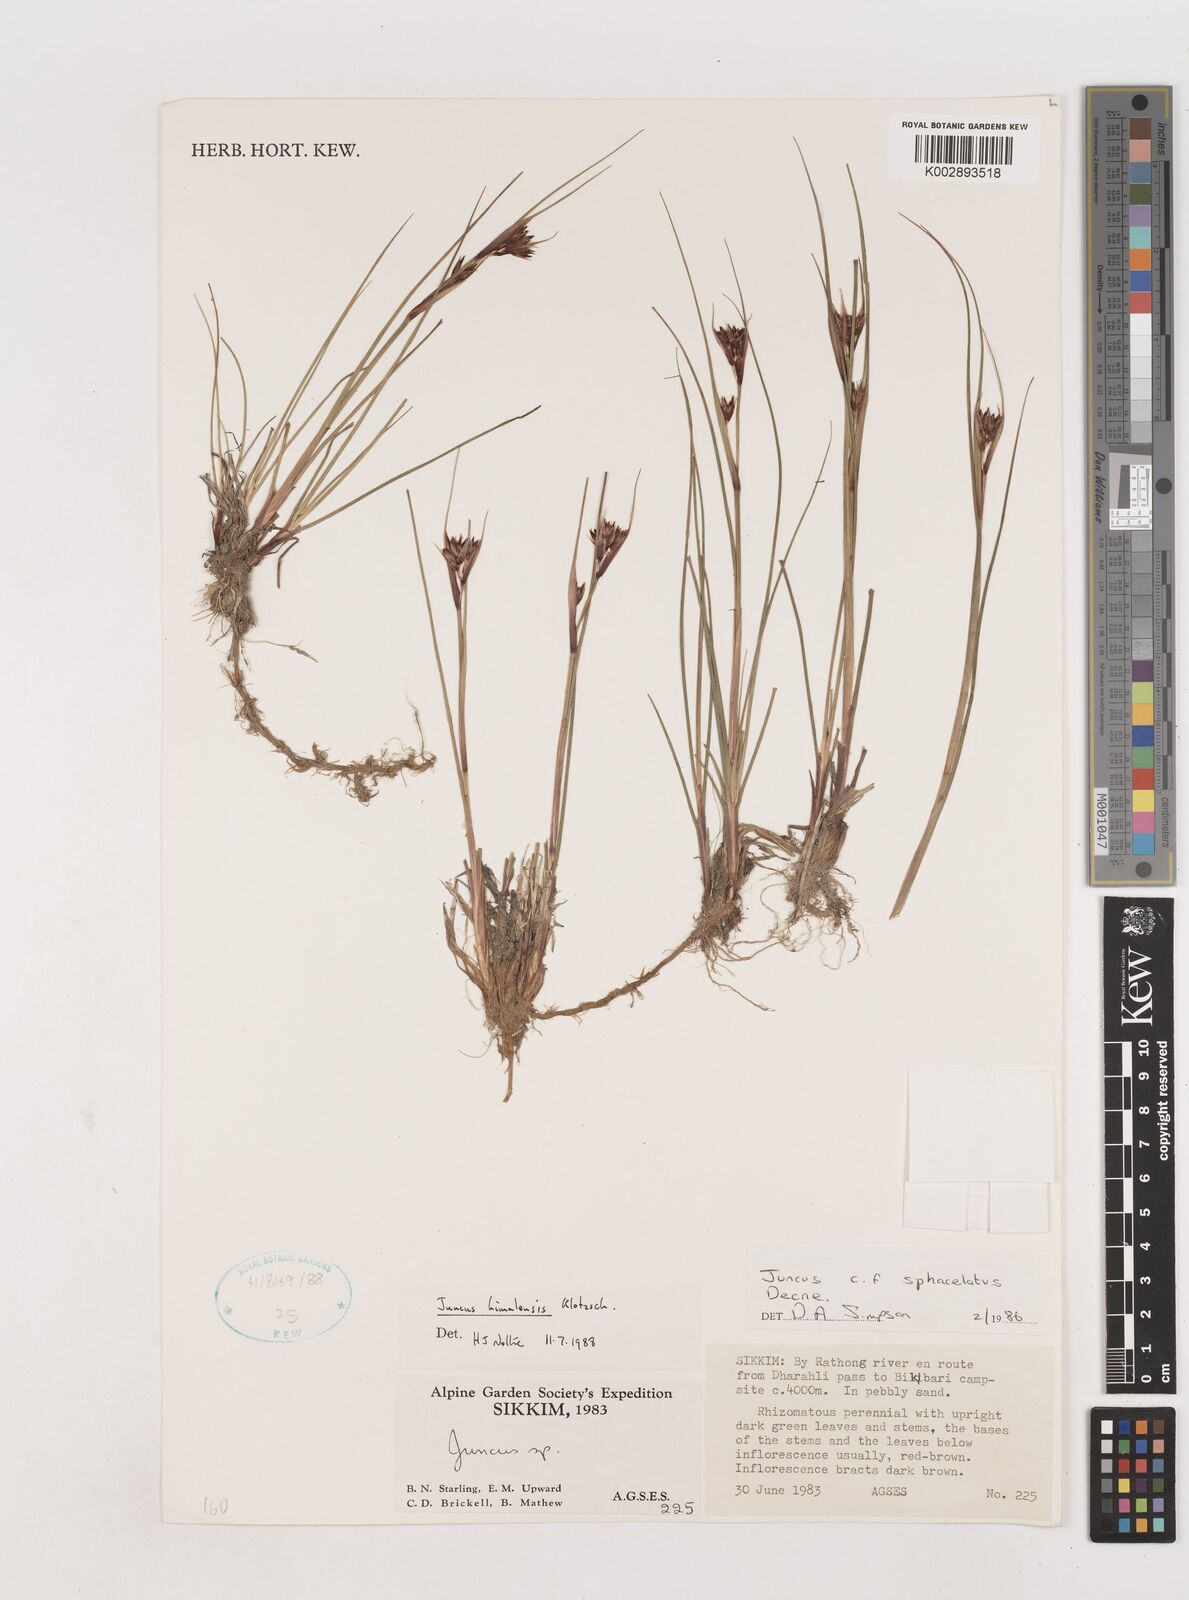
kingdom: Plantae
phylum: Tracheophyta
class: Liliopsida
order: Poales
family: Juncaceae
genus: Juncus
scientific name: Juncus himalensis
